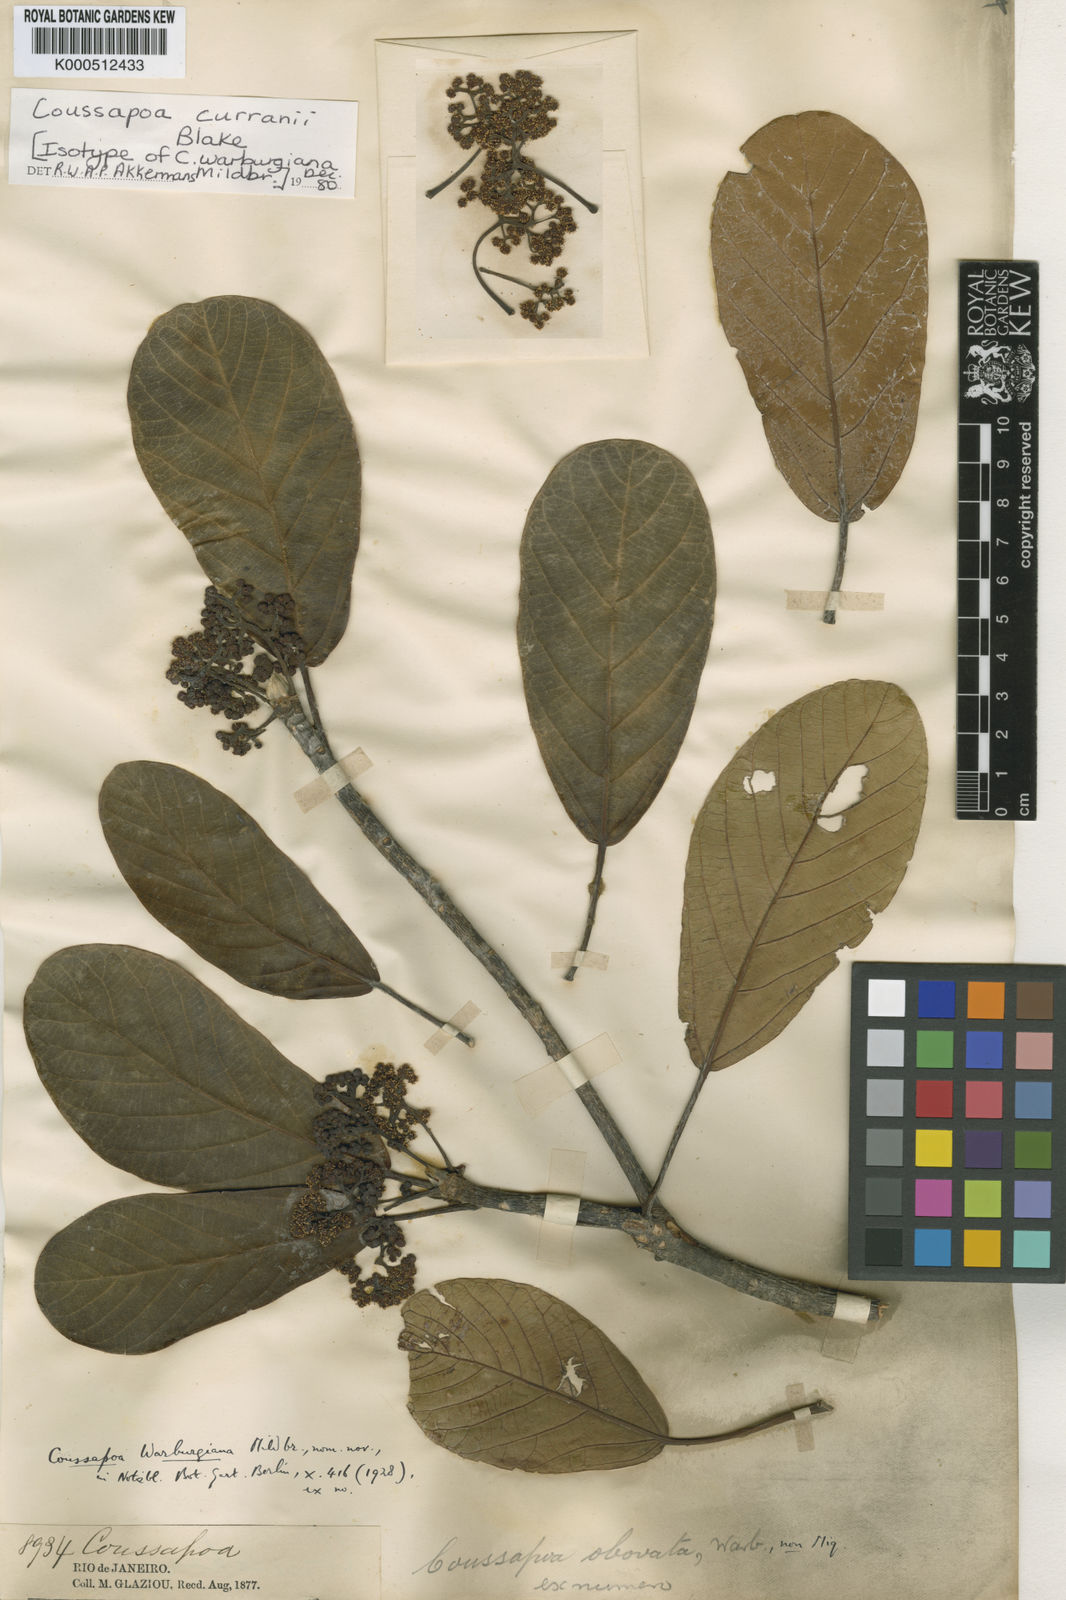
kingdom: Plantae
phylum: Tracheophyta
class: Magnoliopsida
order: Rosales
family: Urticaceae
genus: Coussapoa
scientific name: Coussapoa curranii
